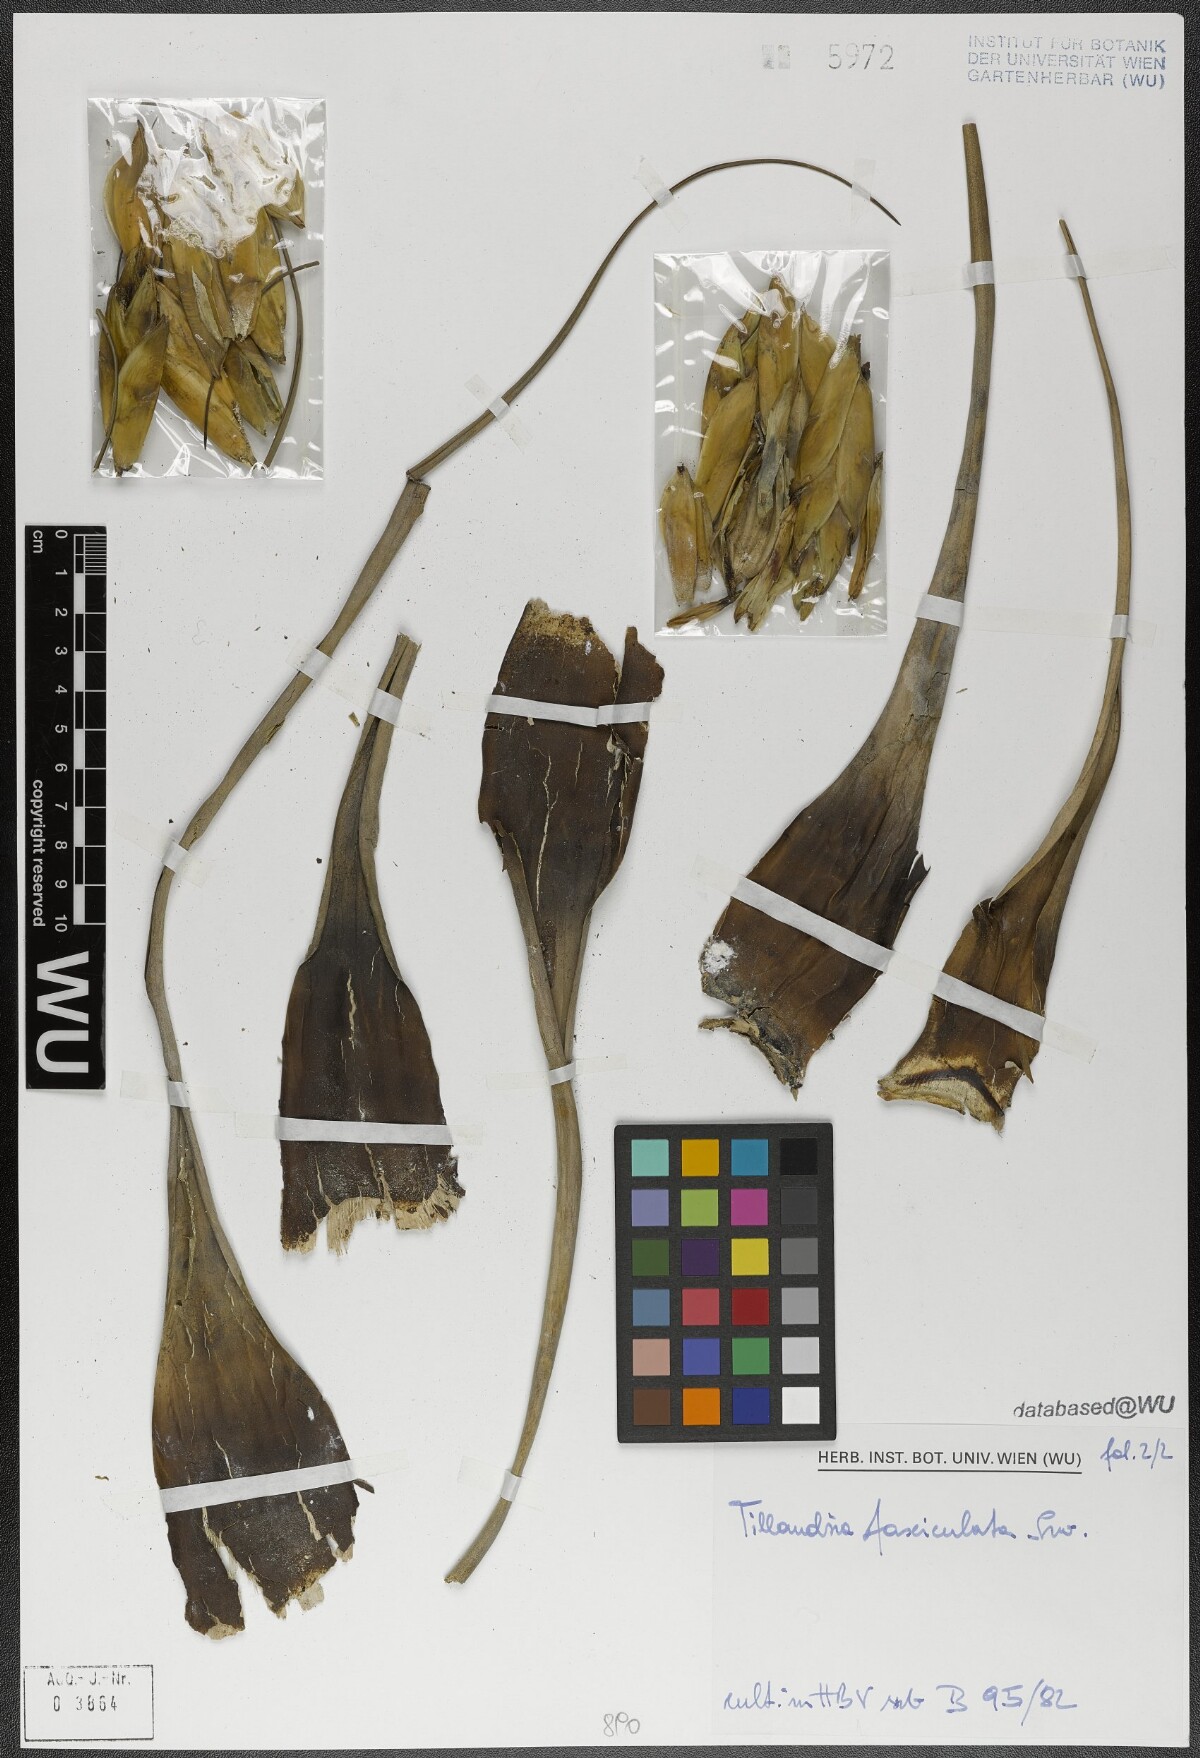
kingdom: Plantae
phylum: Tracheophyta
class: Liliopsida
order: Poales
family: Bromeliaceae
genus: Tillandsia
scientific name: Tillandsia fasciculata
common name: Giant airplant
